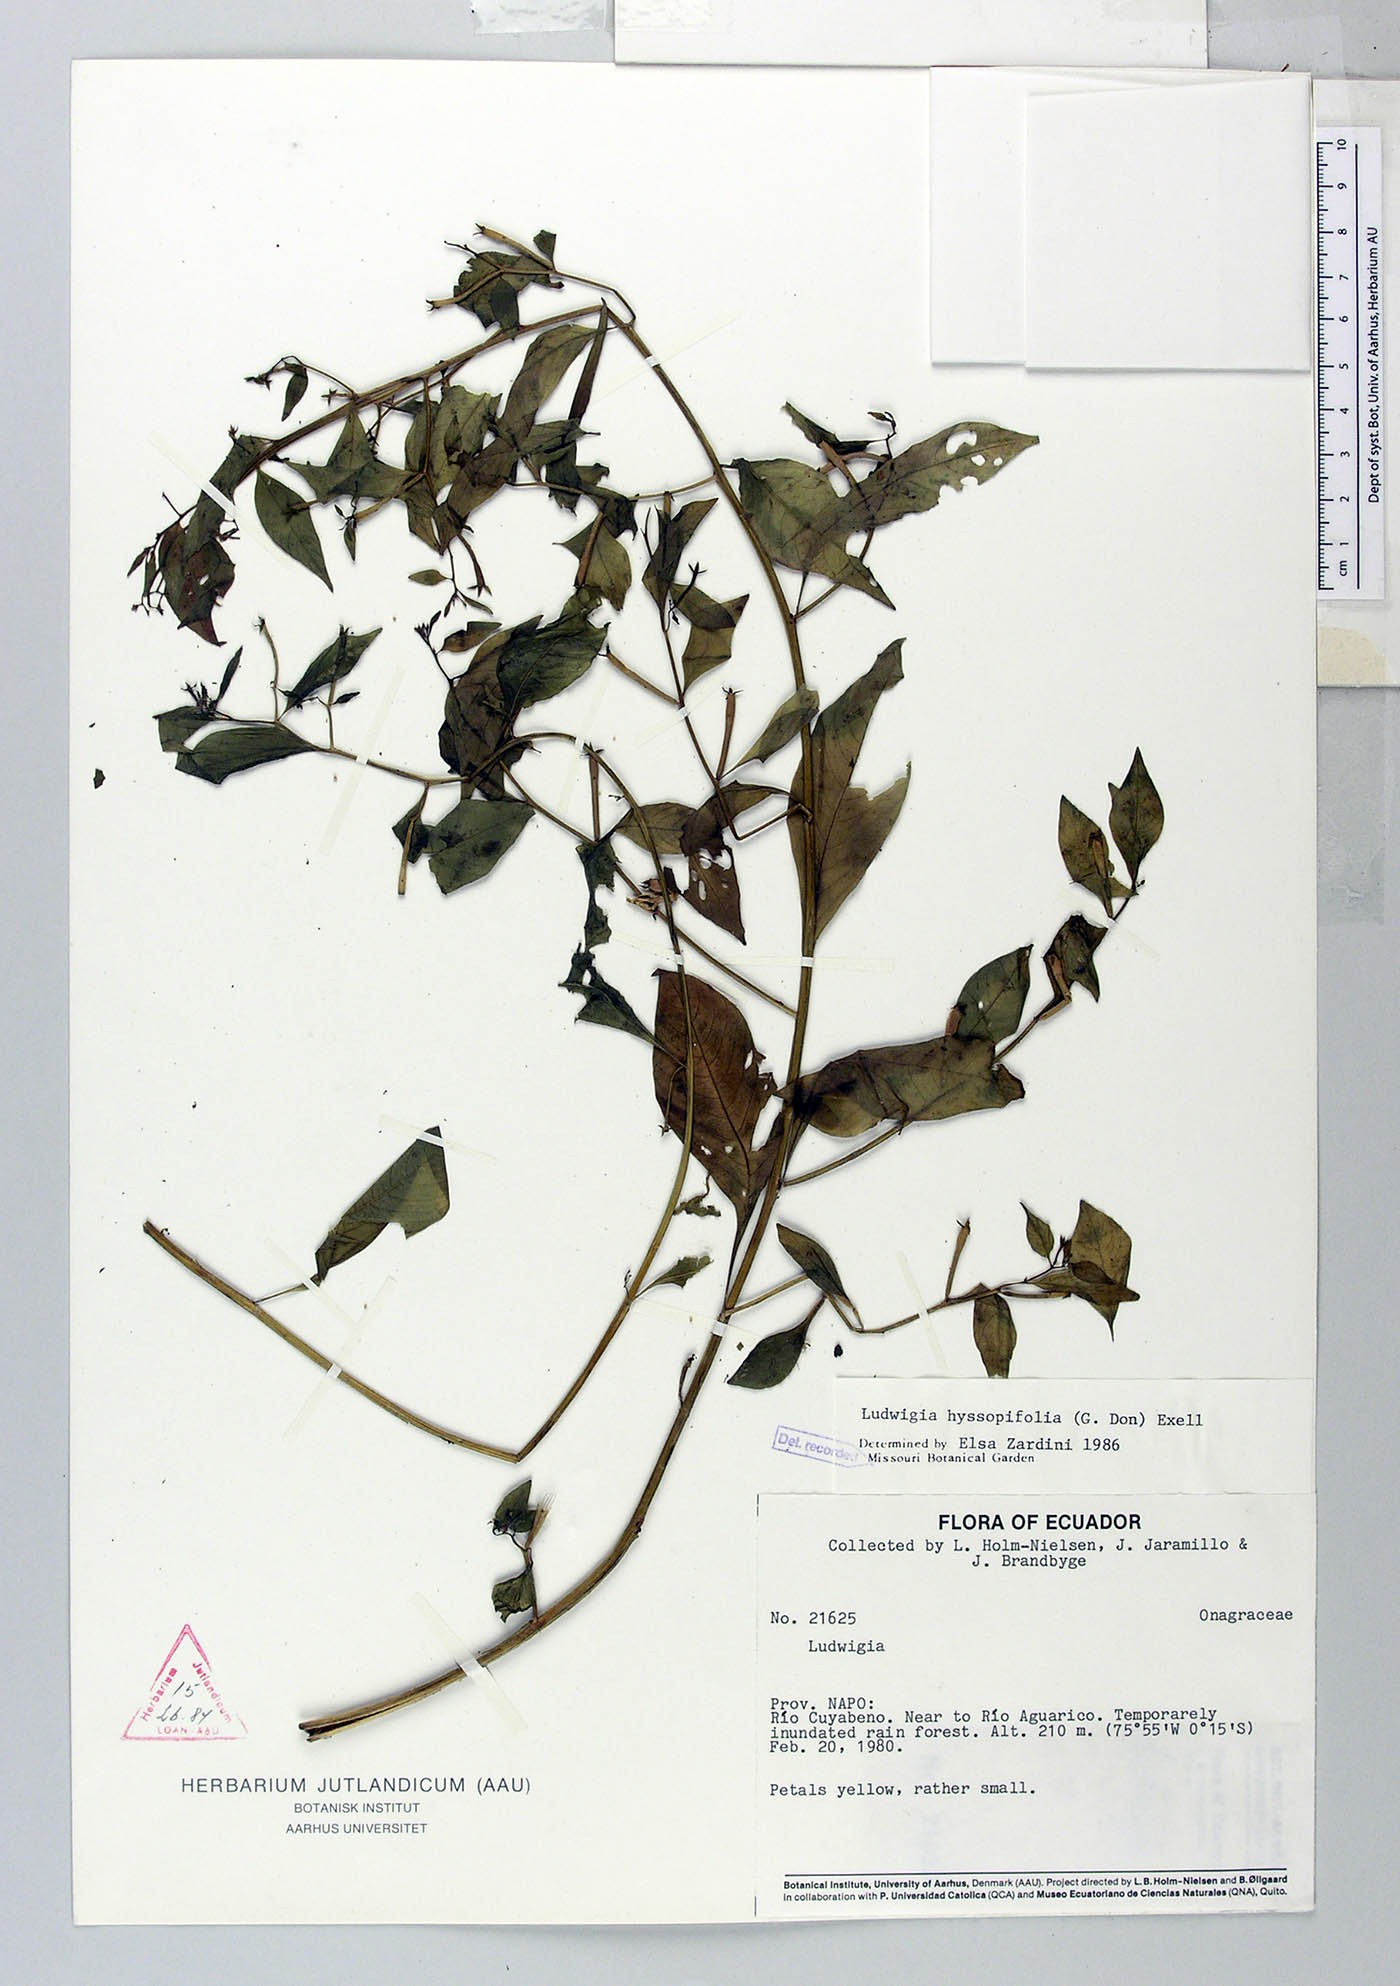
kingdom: Plantae
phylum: Tracheophyta
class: Magnoliopsida
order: Myrtales
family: Onagraceae
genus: Ludwigia
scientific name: Ludwigia hyssopifolia
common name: Linear leaf water primrose
